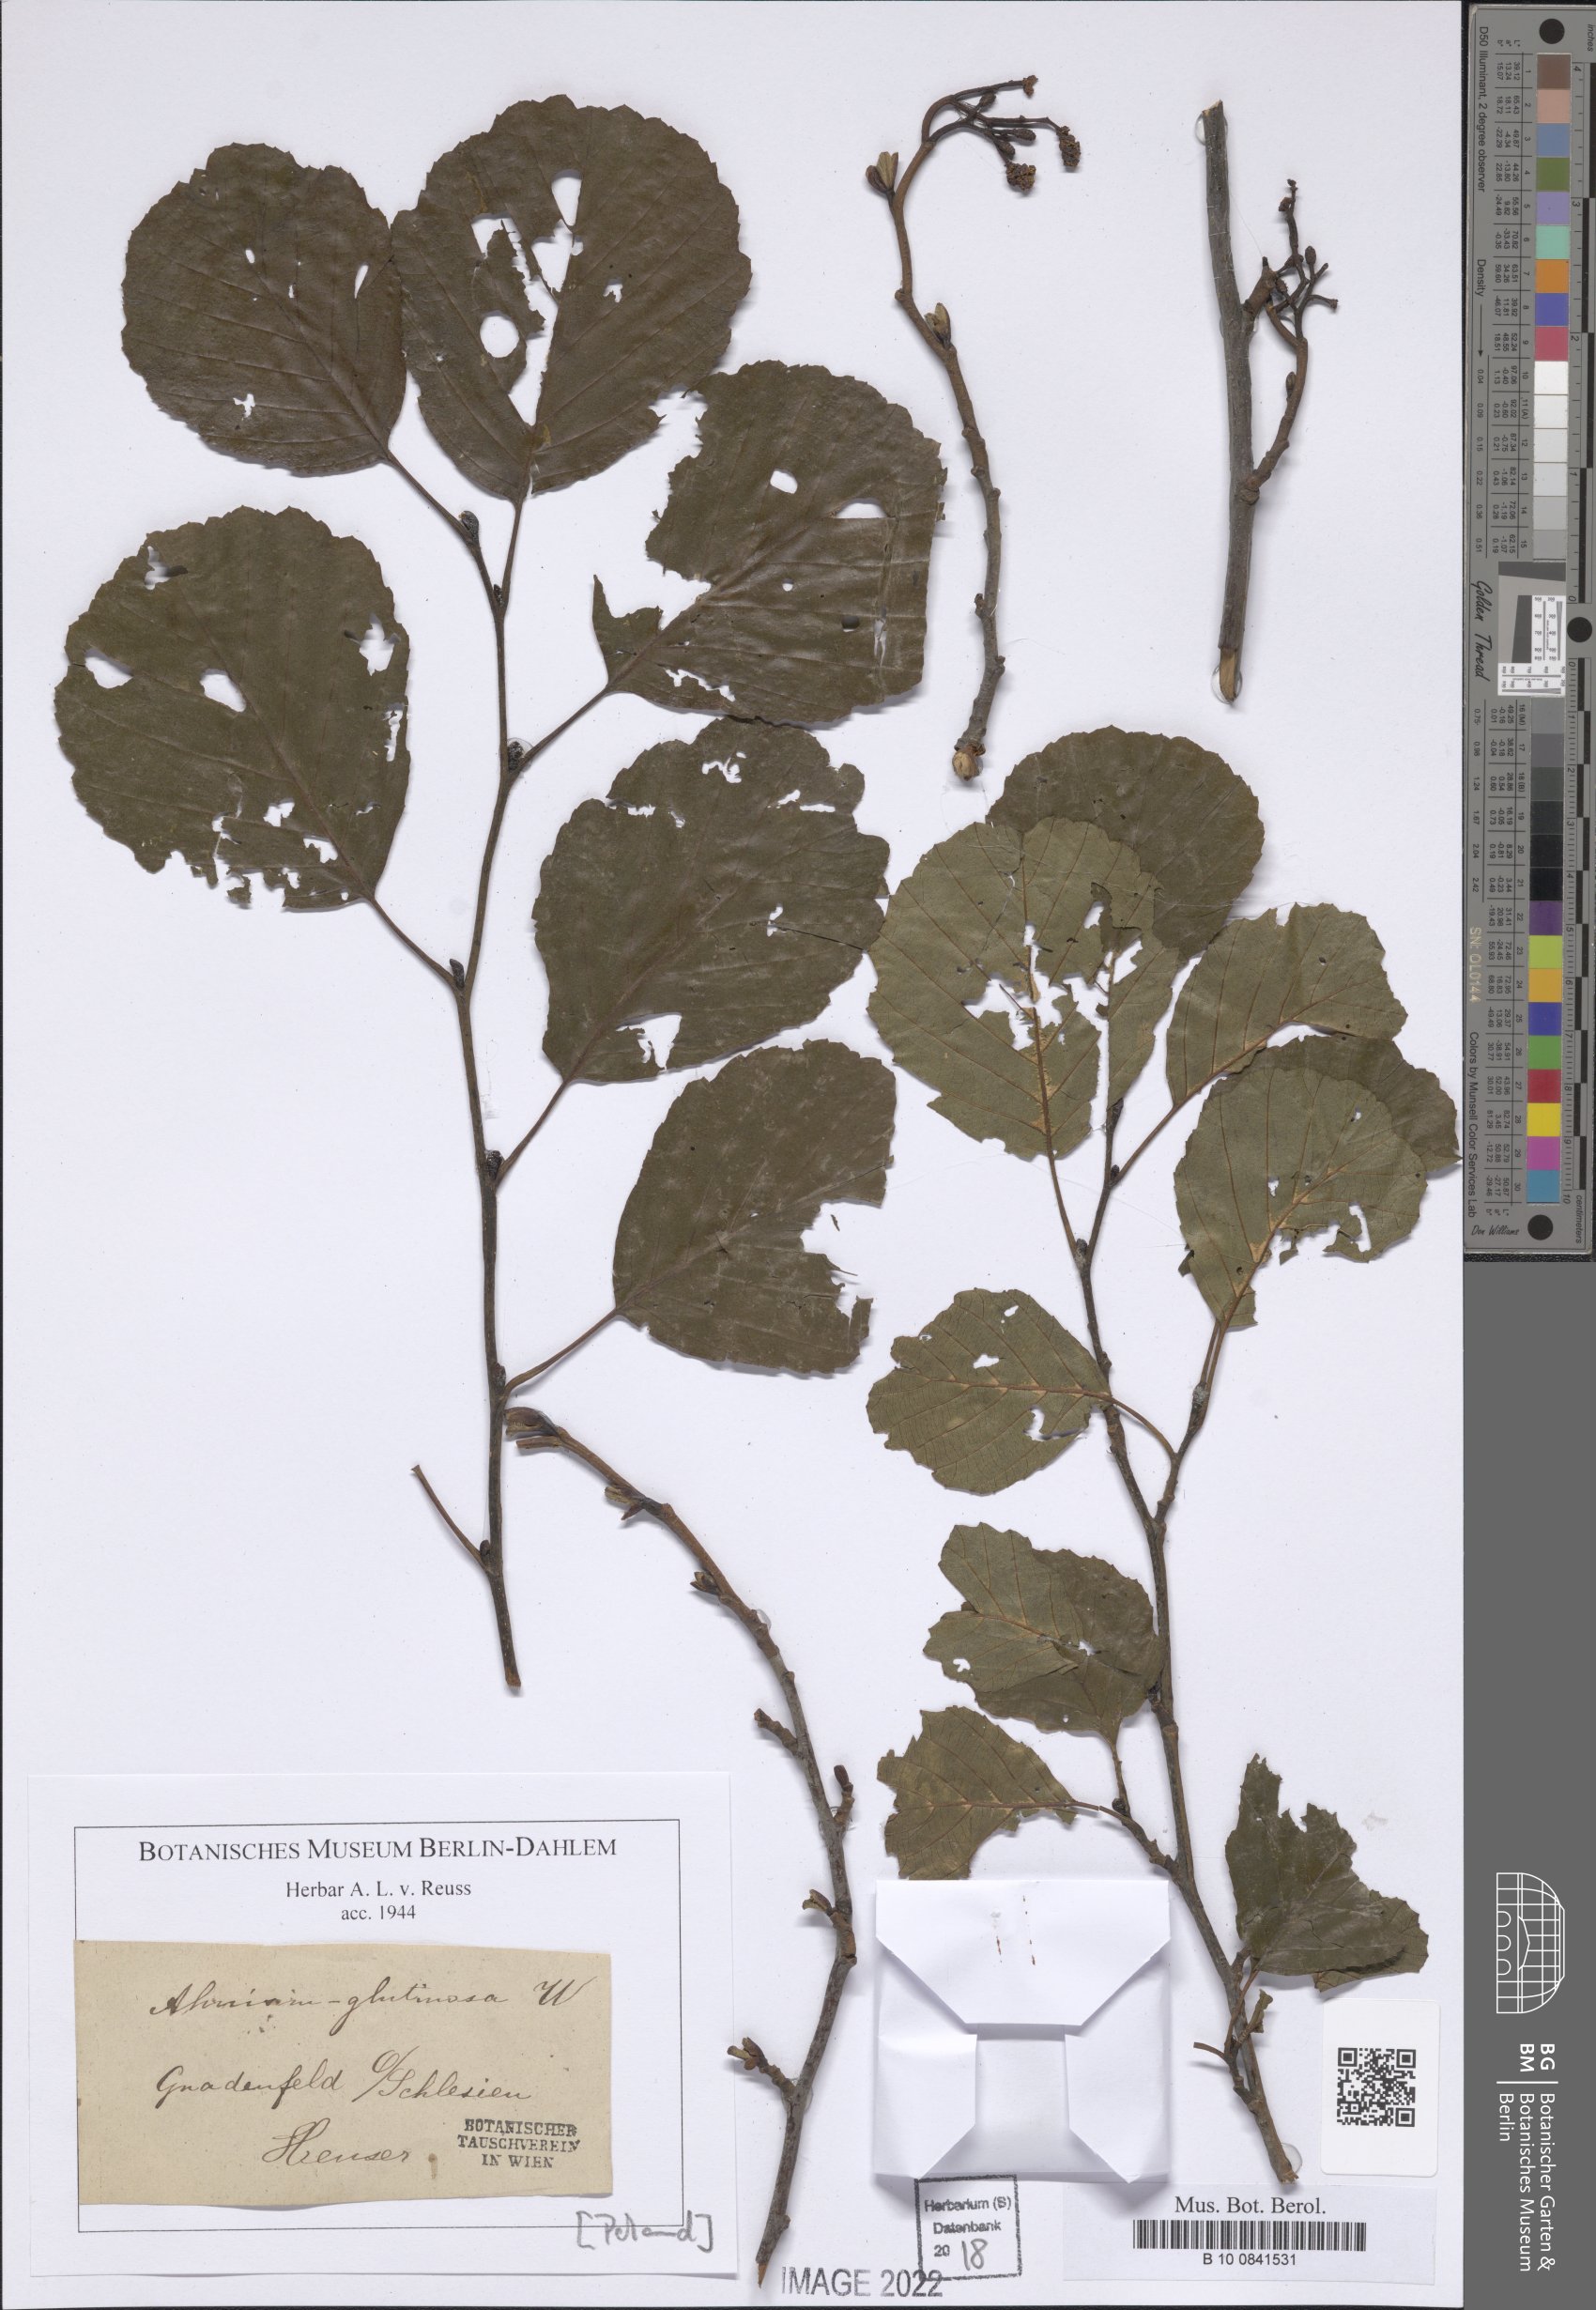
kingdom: Plantae
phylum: Tracheophyta
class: Magnoliopsida
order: Fagales
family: Betulaceae
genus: Alnus
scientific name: Alnus glutinosa
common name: Black alder
